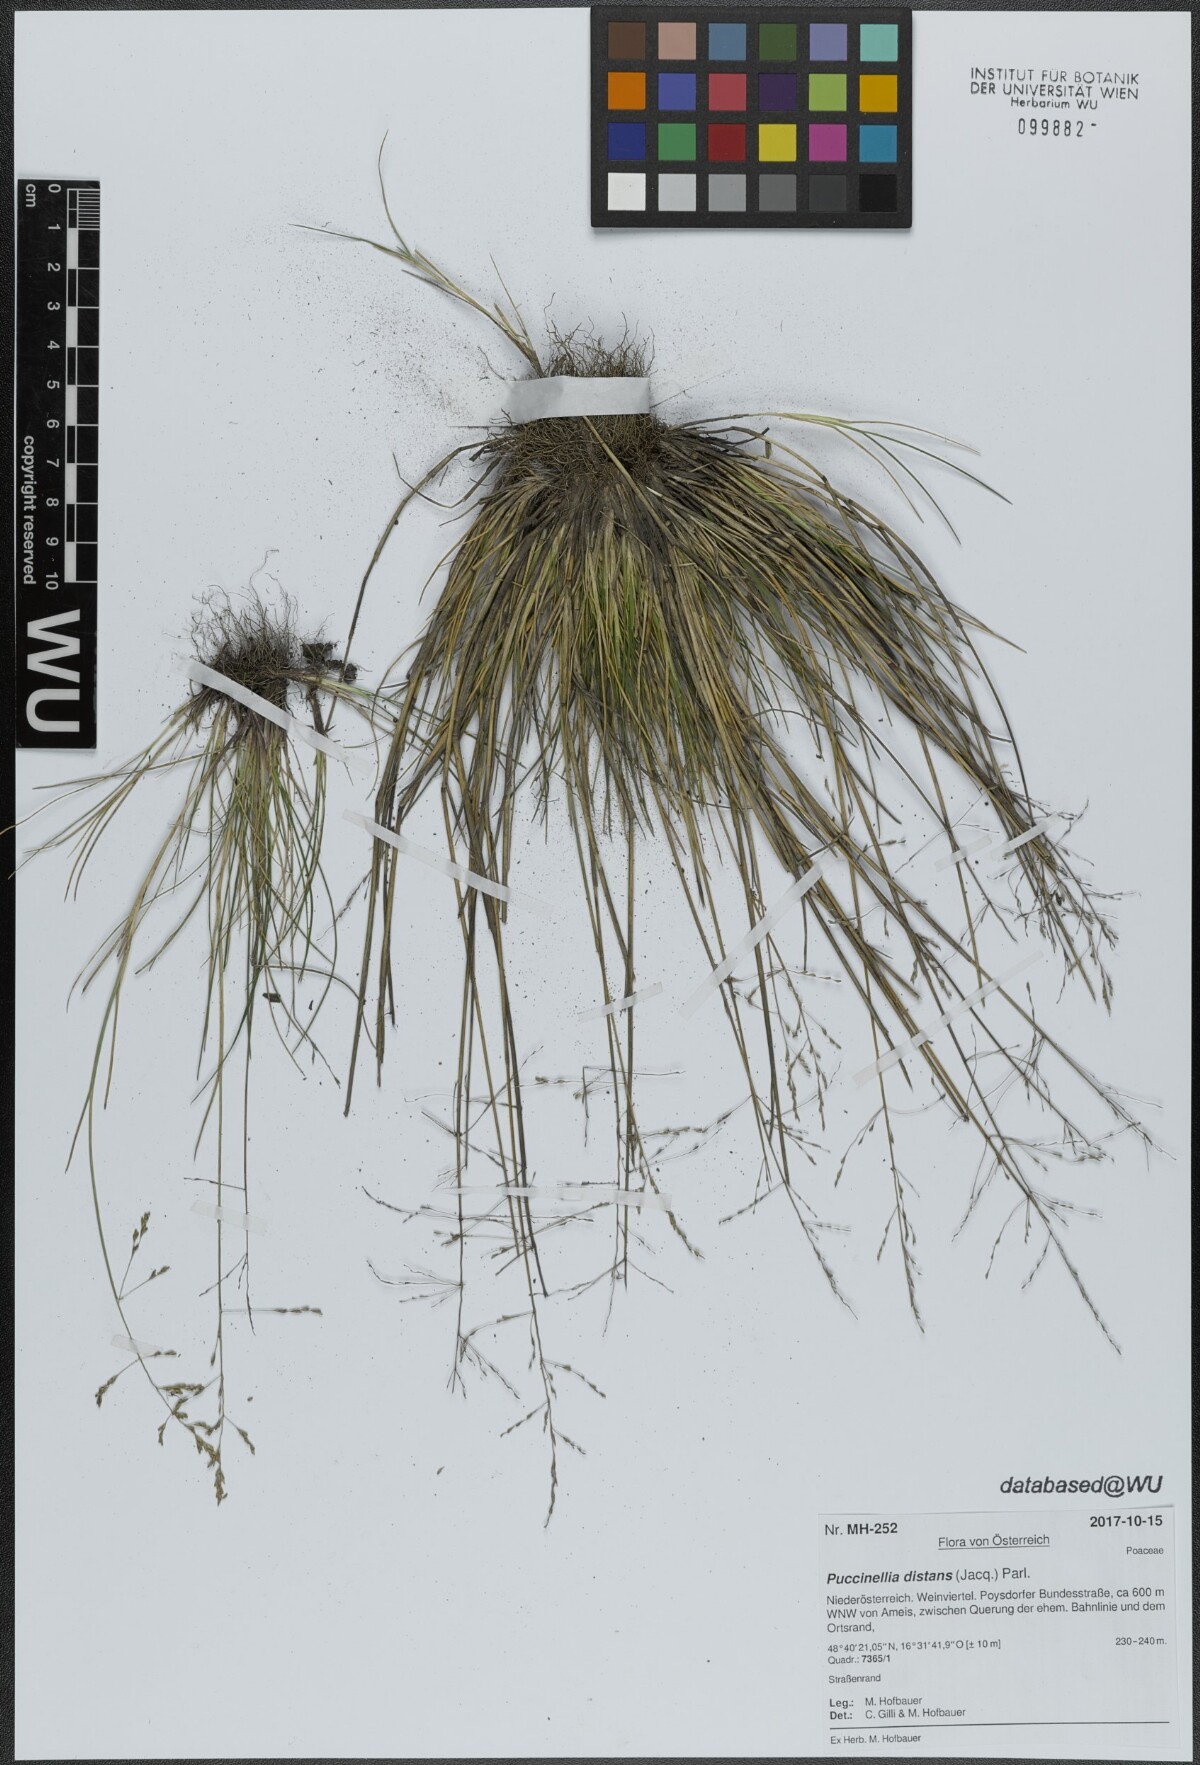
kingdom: Plantae
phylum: Tracheophyta
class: Liliopsida
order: Poales
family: Poaceae
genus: Puccinellia
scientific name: Puccinellia distans
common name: Weeping alkaligrass
